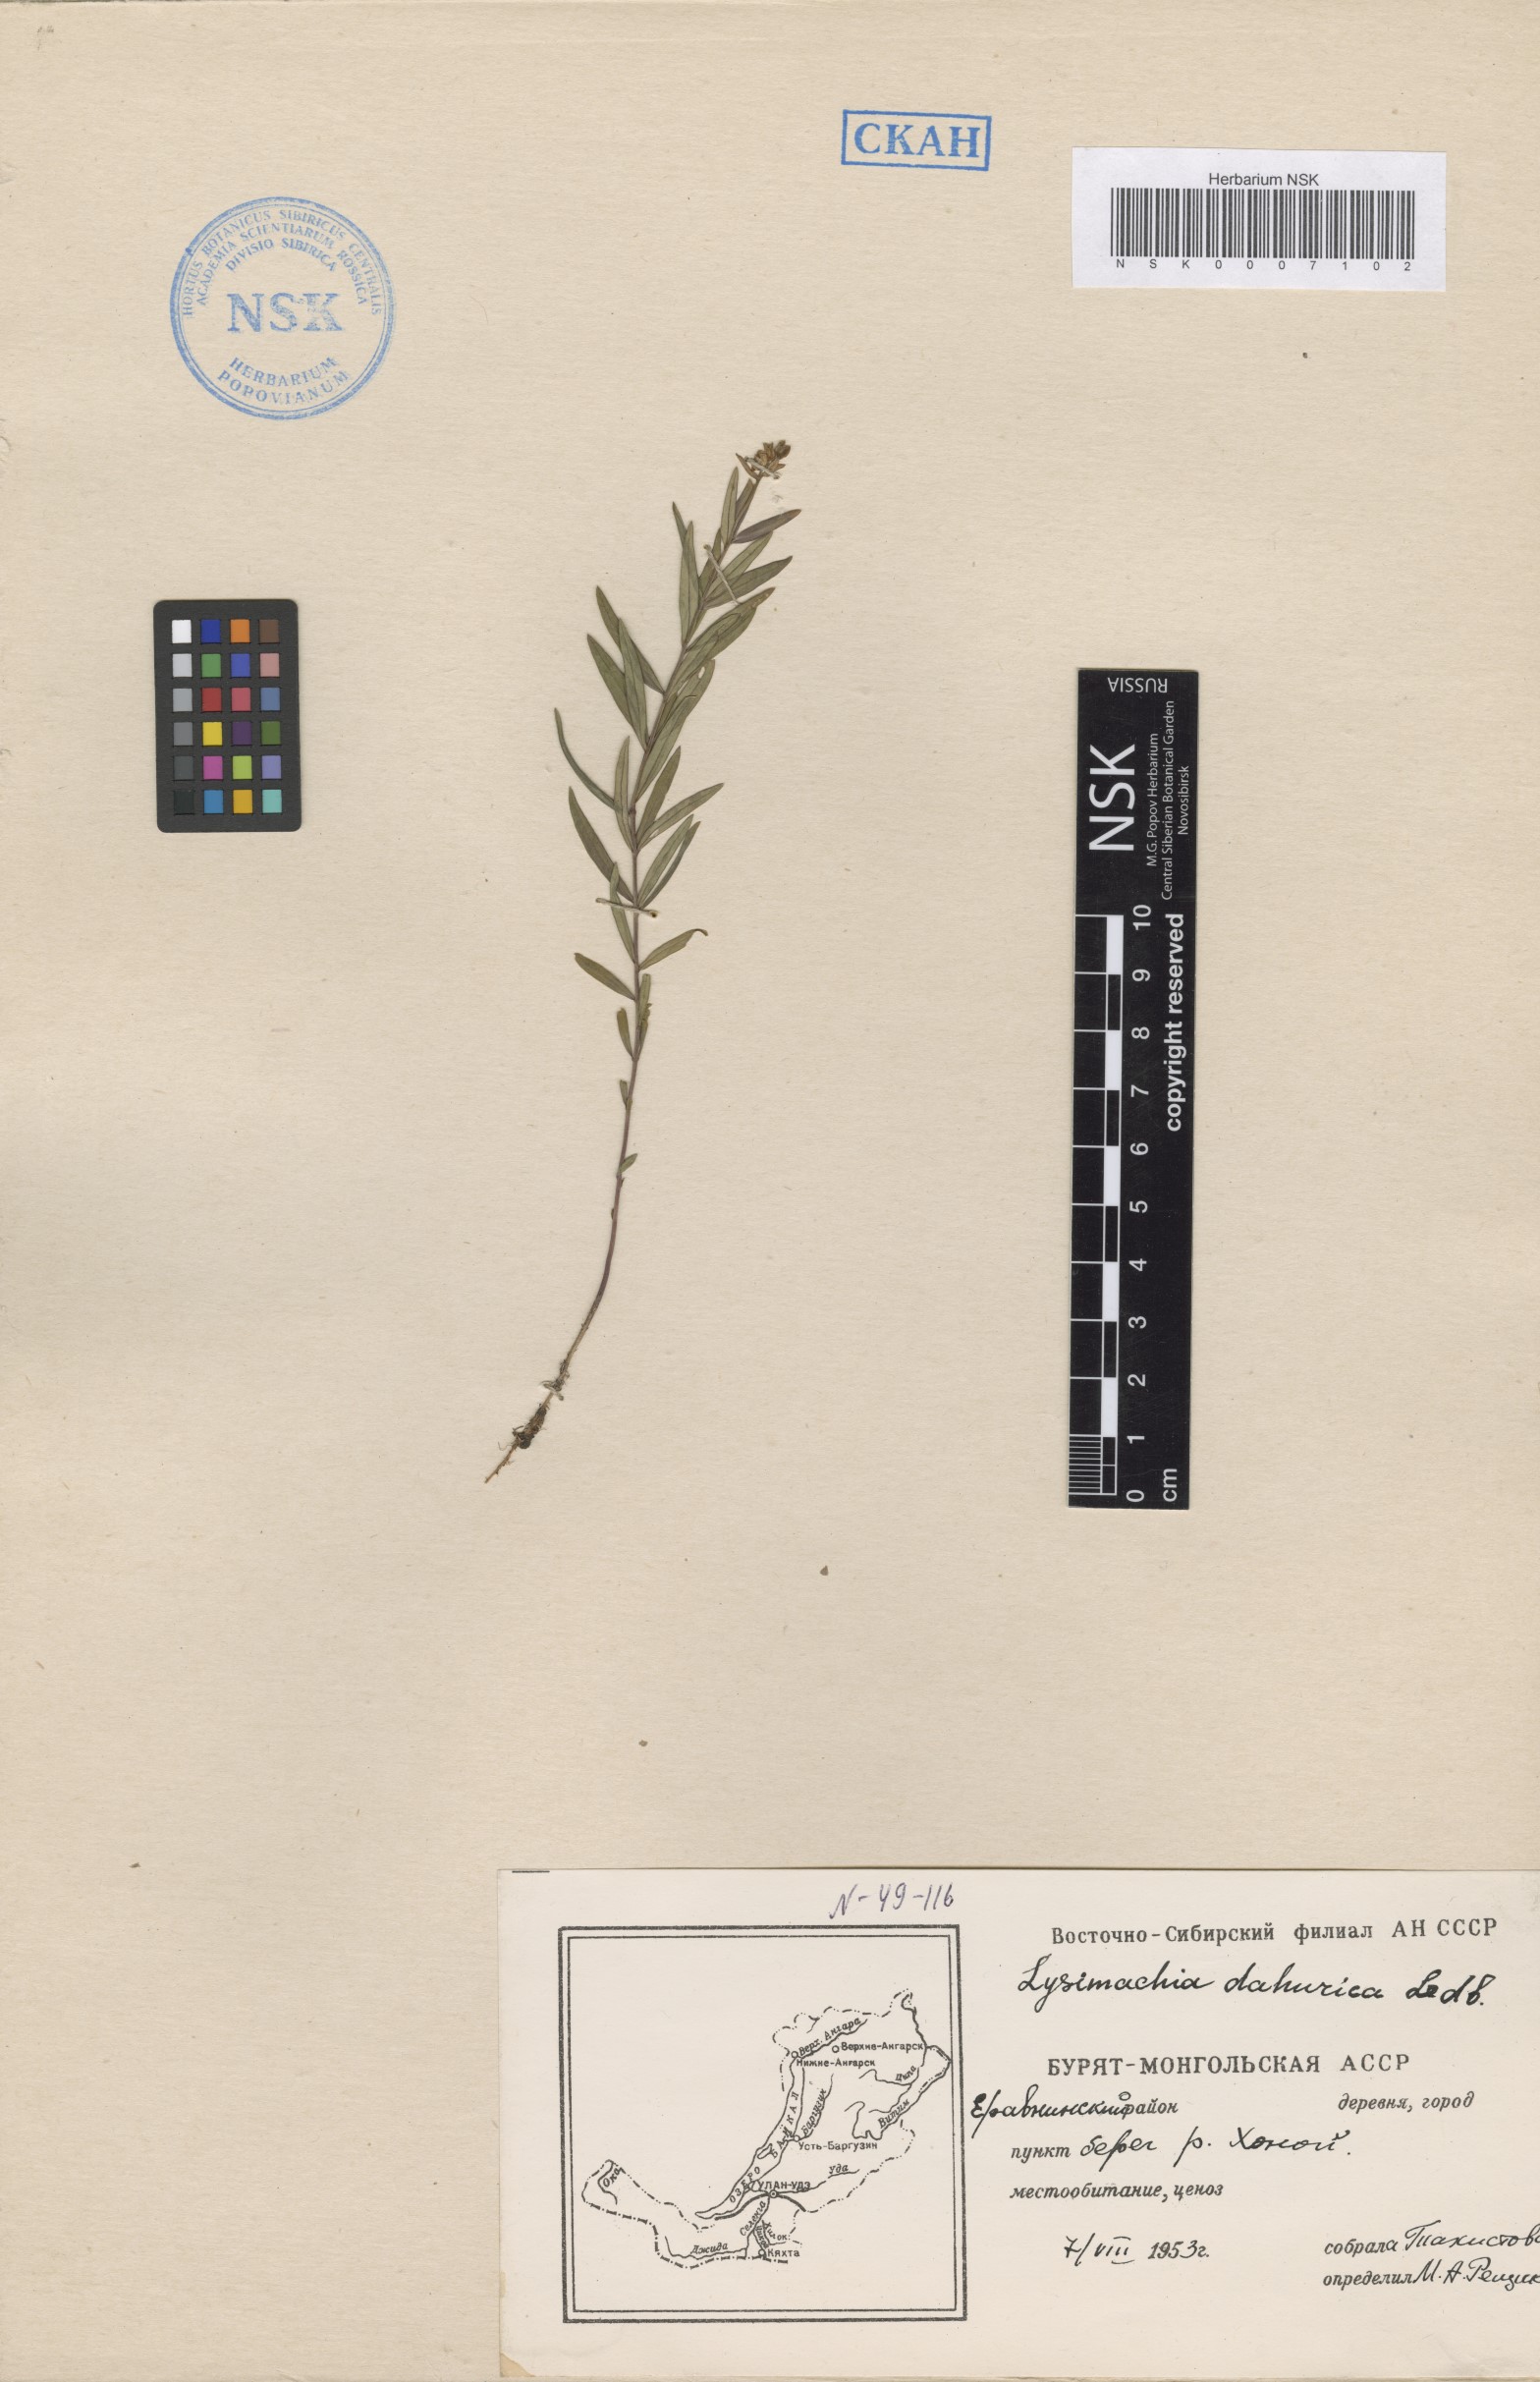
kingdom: Plantae
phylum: Tracheophyta
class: Magnoliopsida
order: Ericales
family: Primulaceae
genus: Lysimachia
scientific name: Lysimachia davurica
